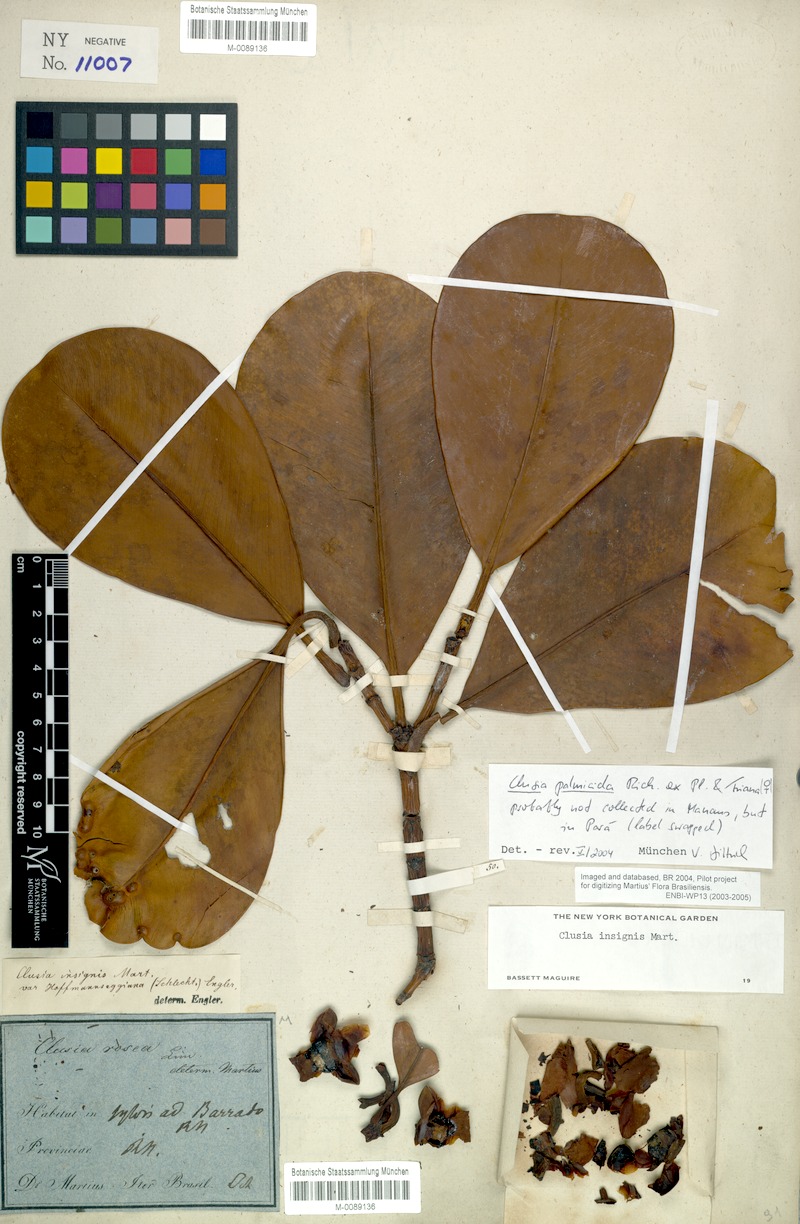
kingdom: Plantae
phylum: Tracheophyta
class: Magnoliopsida
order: Malpighiales
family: Clusiaceae
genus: Clusia
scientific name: Clusia palmicida
